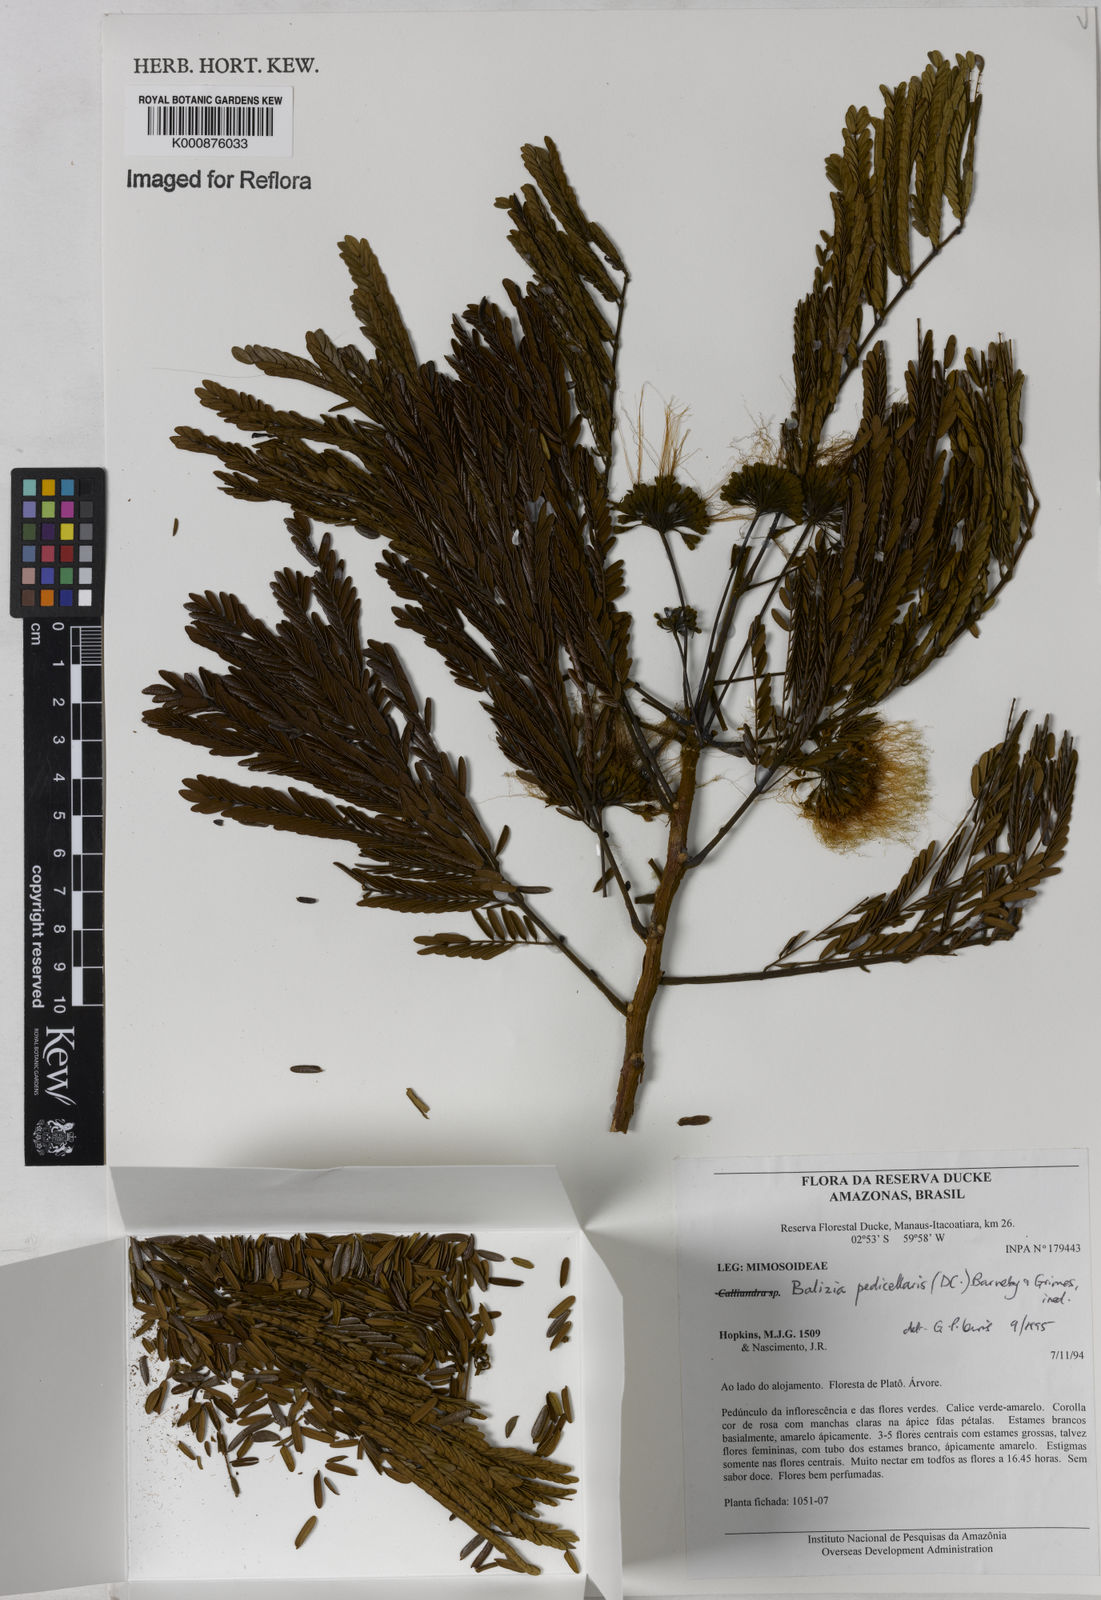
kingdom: Plantae
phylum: Tracheophyta
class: Magnoliopsida
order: Fabales
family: Fabaceae
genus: Balizia
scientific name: Balizia pedicellaris
